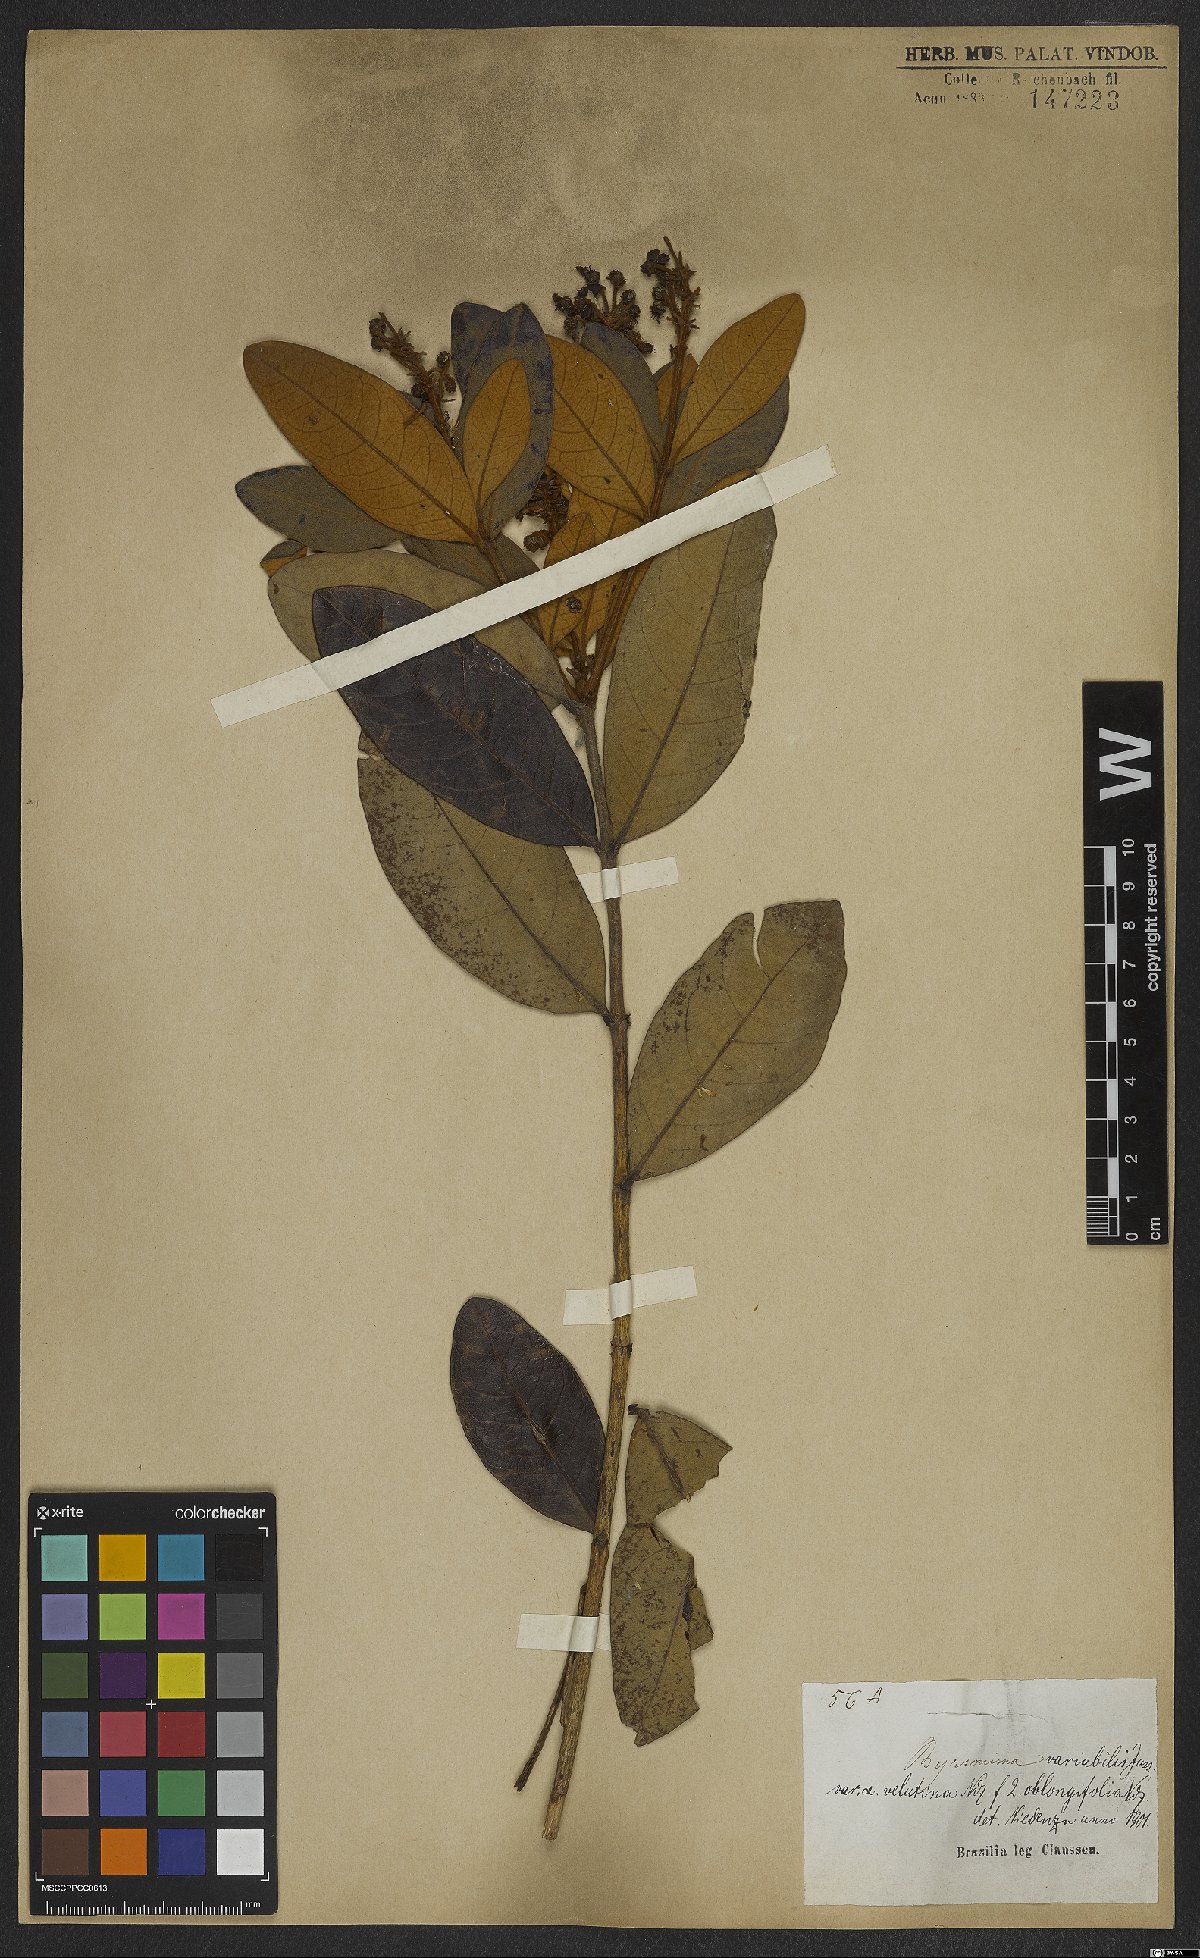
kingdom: Plantae
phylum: Tracheophyta
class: Magnoliopsida
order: Malpighiales
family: Malpighiaceae
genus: Byrsonima
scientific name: Byrsonima variabilis
